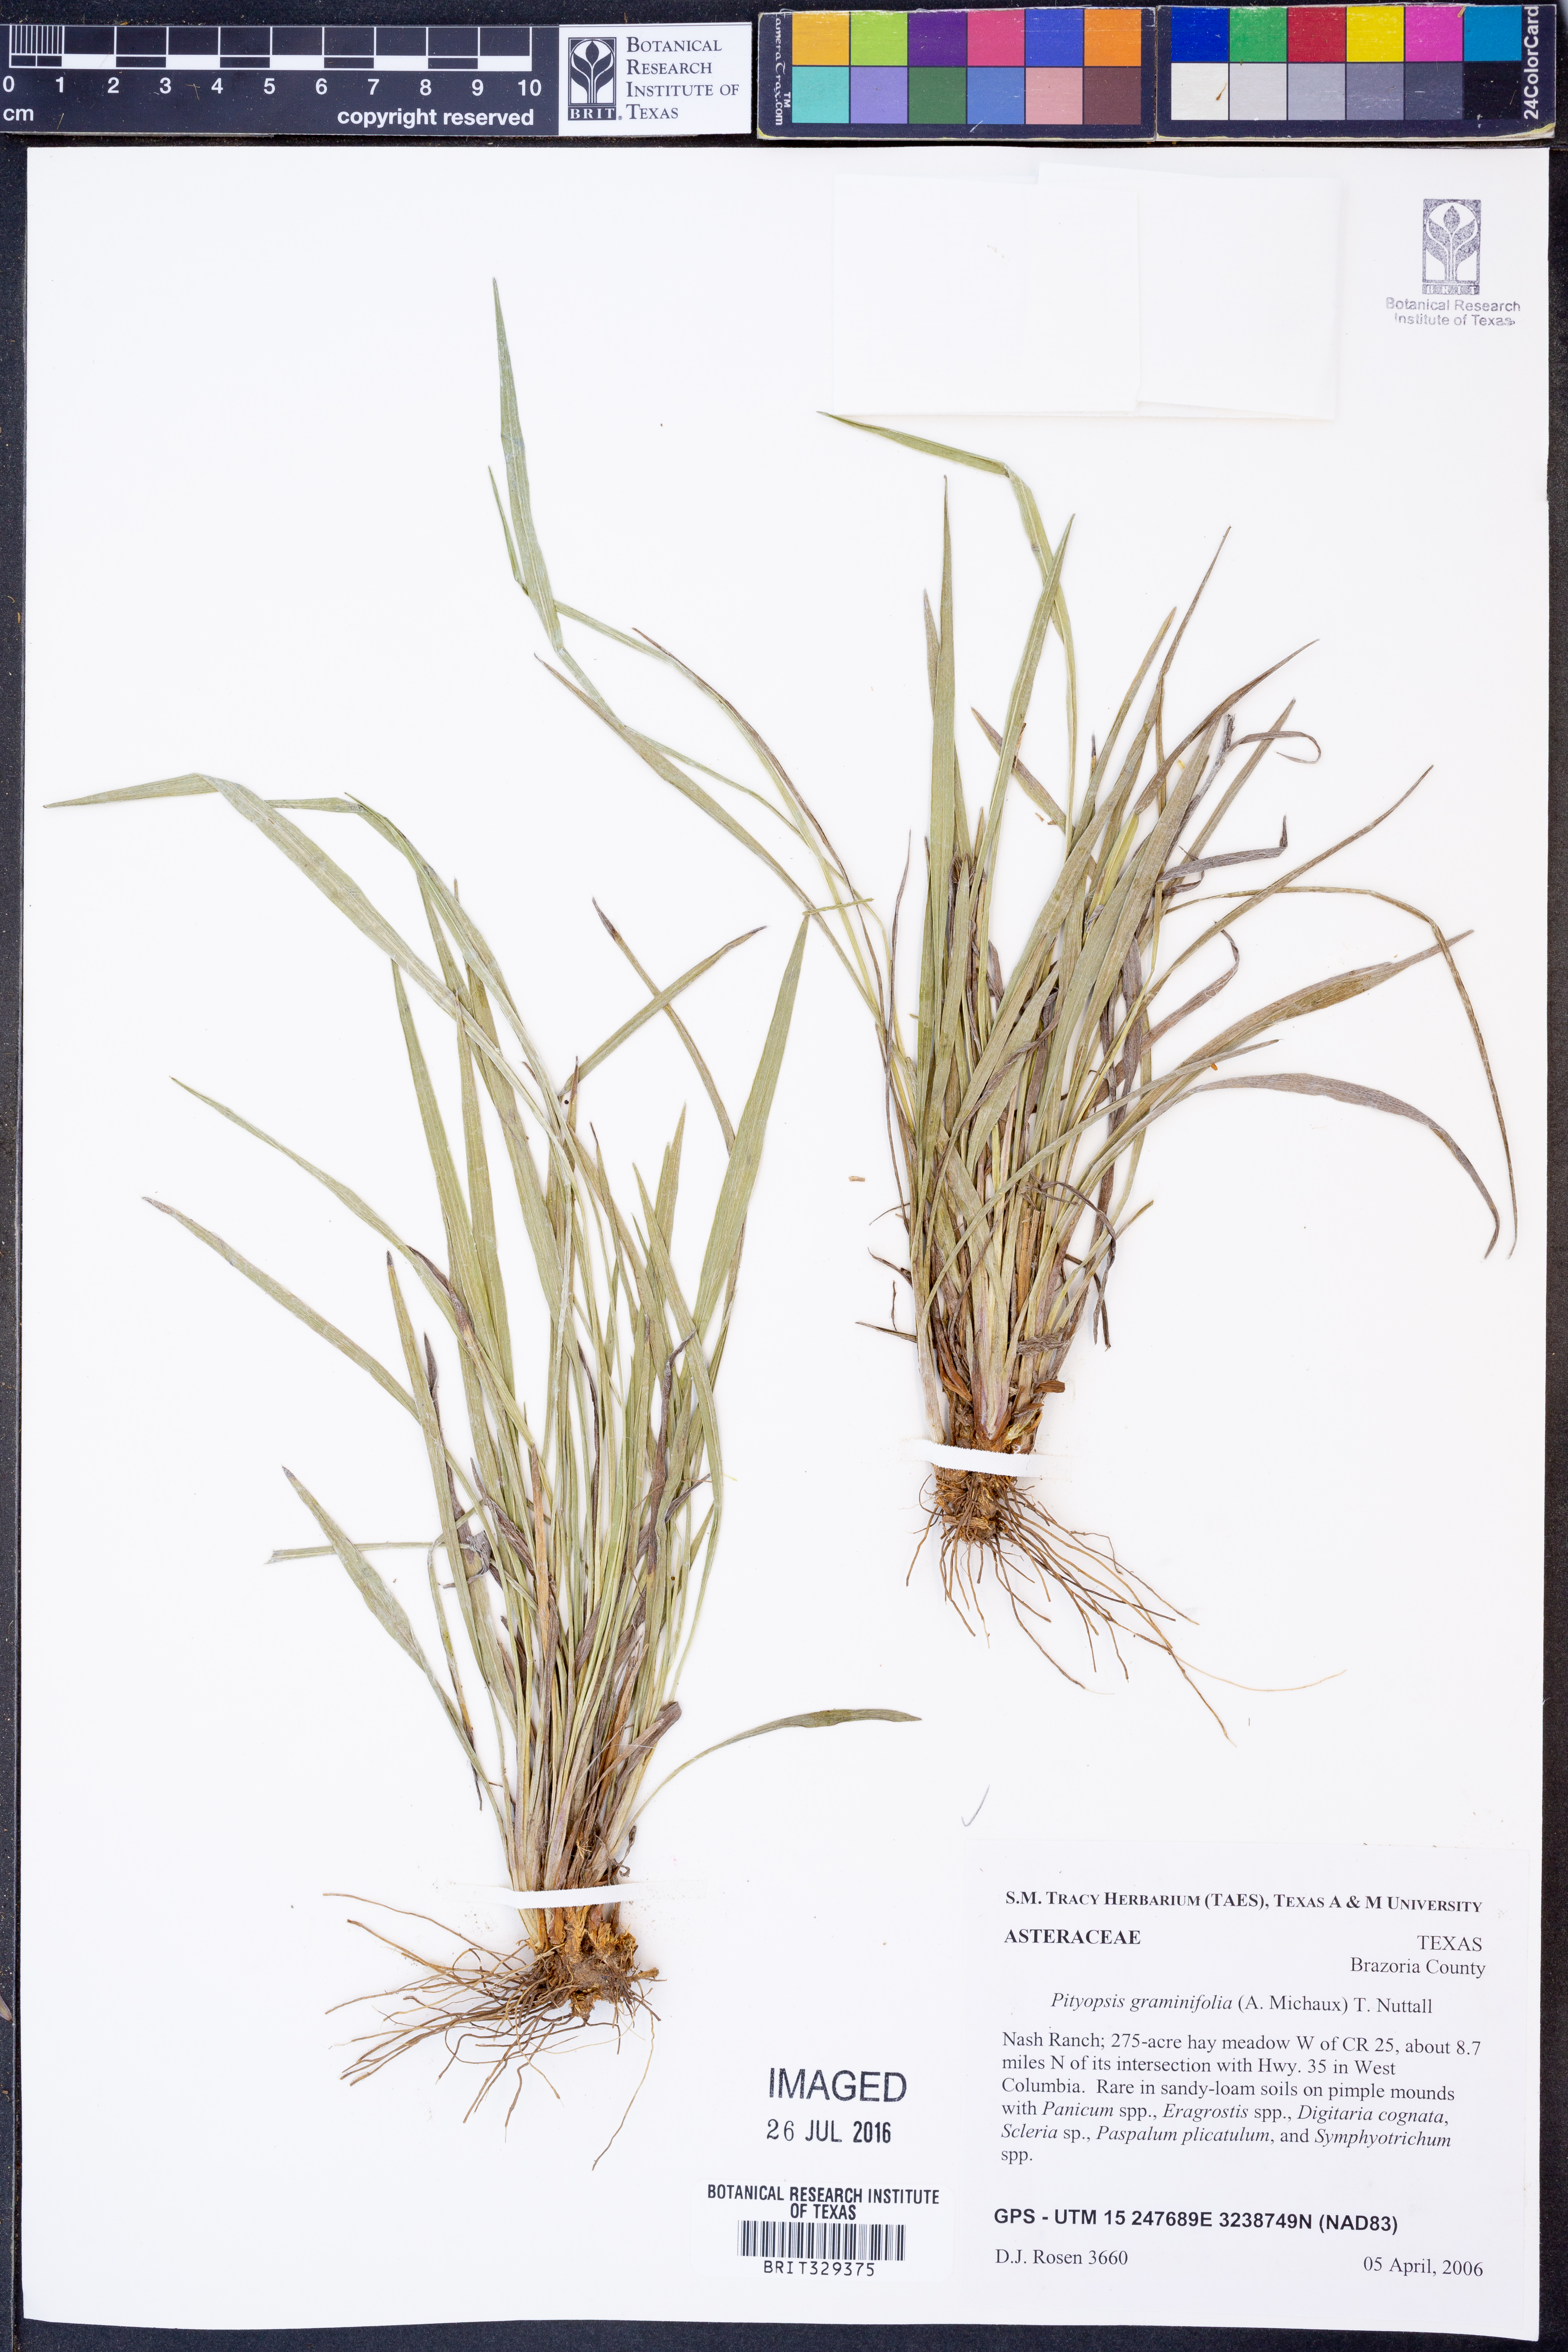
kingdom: Plantae
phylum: Tracheophyta
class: Magnoliopsida
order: Asterales
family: Asteraceae
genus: Pityopsis
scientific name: Pityopsis graminifolia
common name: Grass-leaf golden-aster
